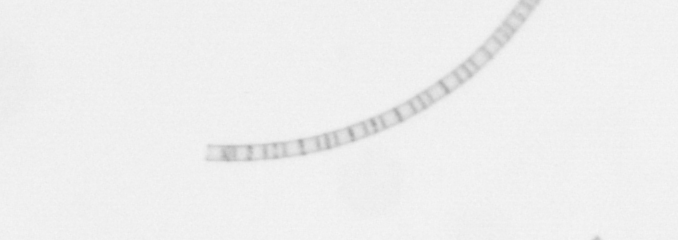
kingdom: Chromista
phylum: Ochrophyta
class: Bacillariophyceae
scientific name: Bacillariophyceae
